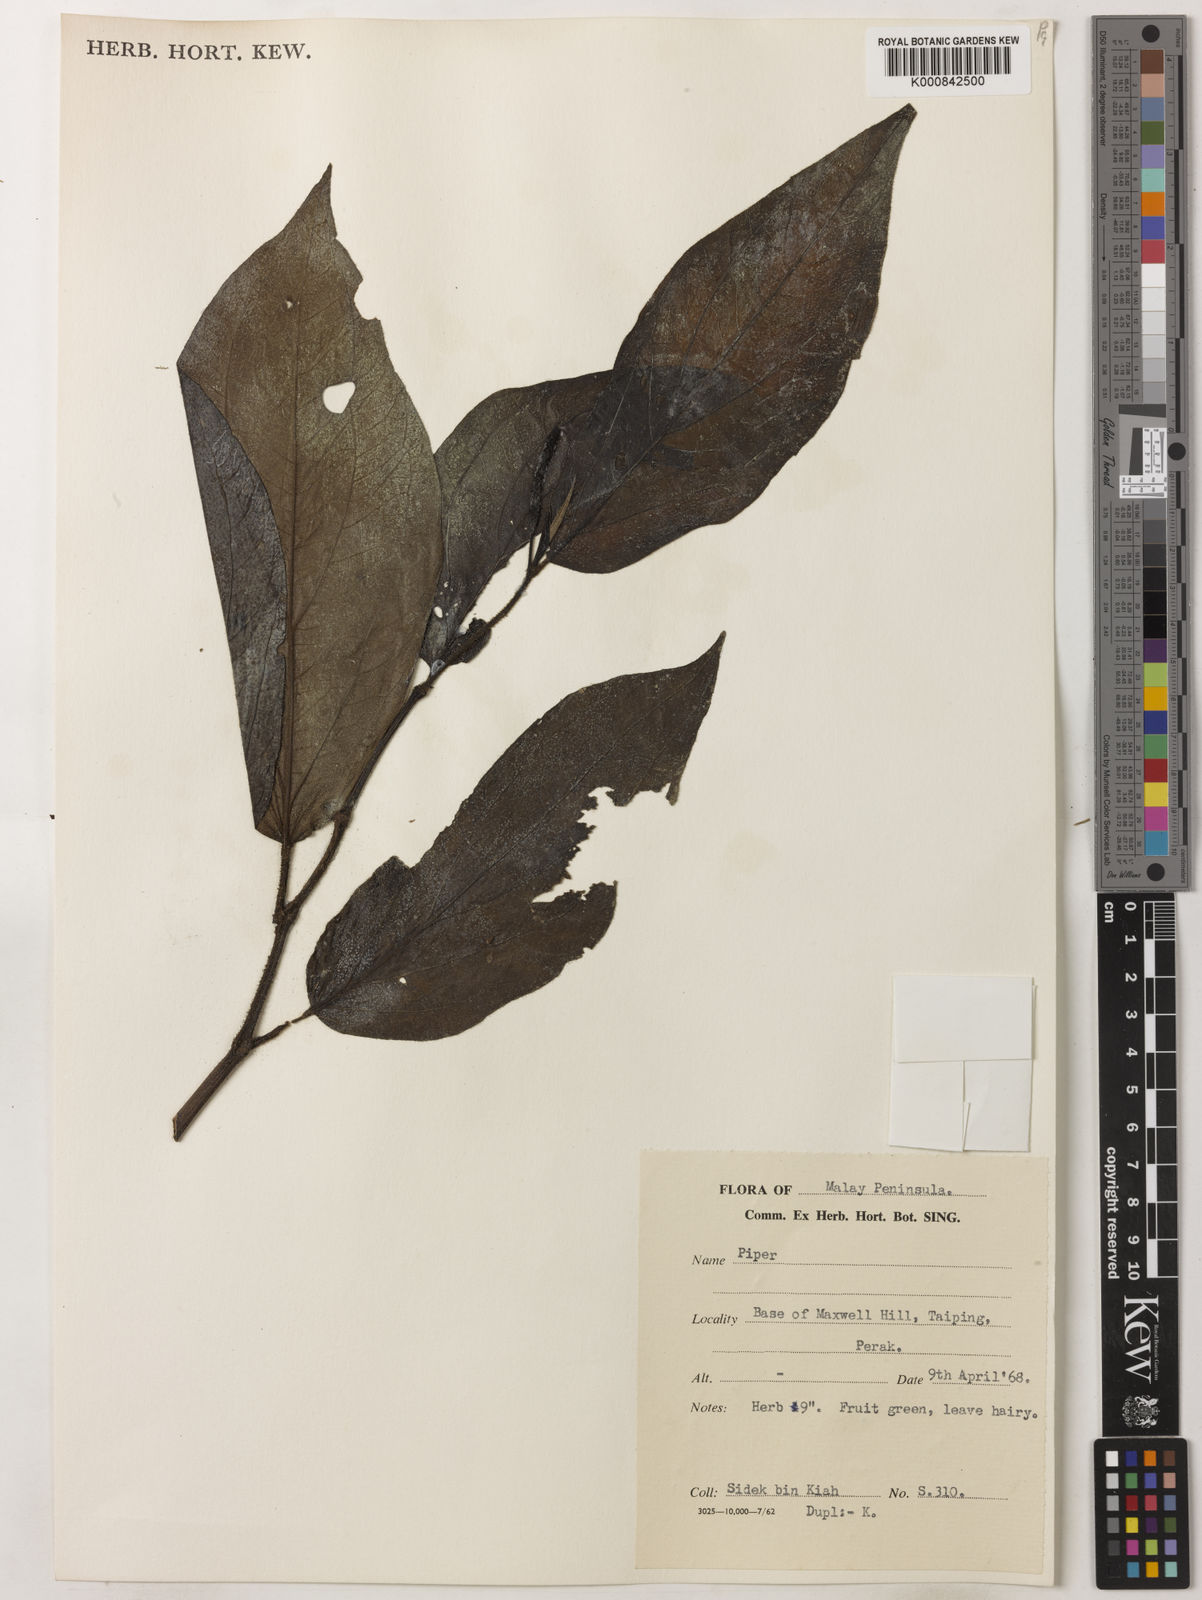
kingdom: Plantae
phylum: Tracheophyta
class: Magnoliopsida
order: Piperales
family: Piperaceae
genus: Piper
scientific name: Piper
